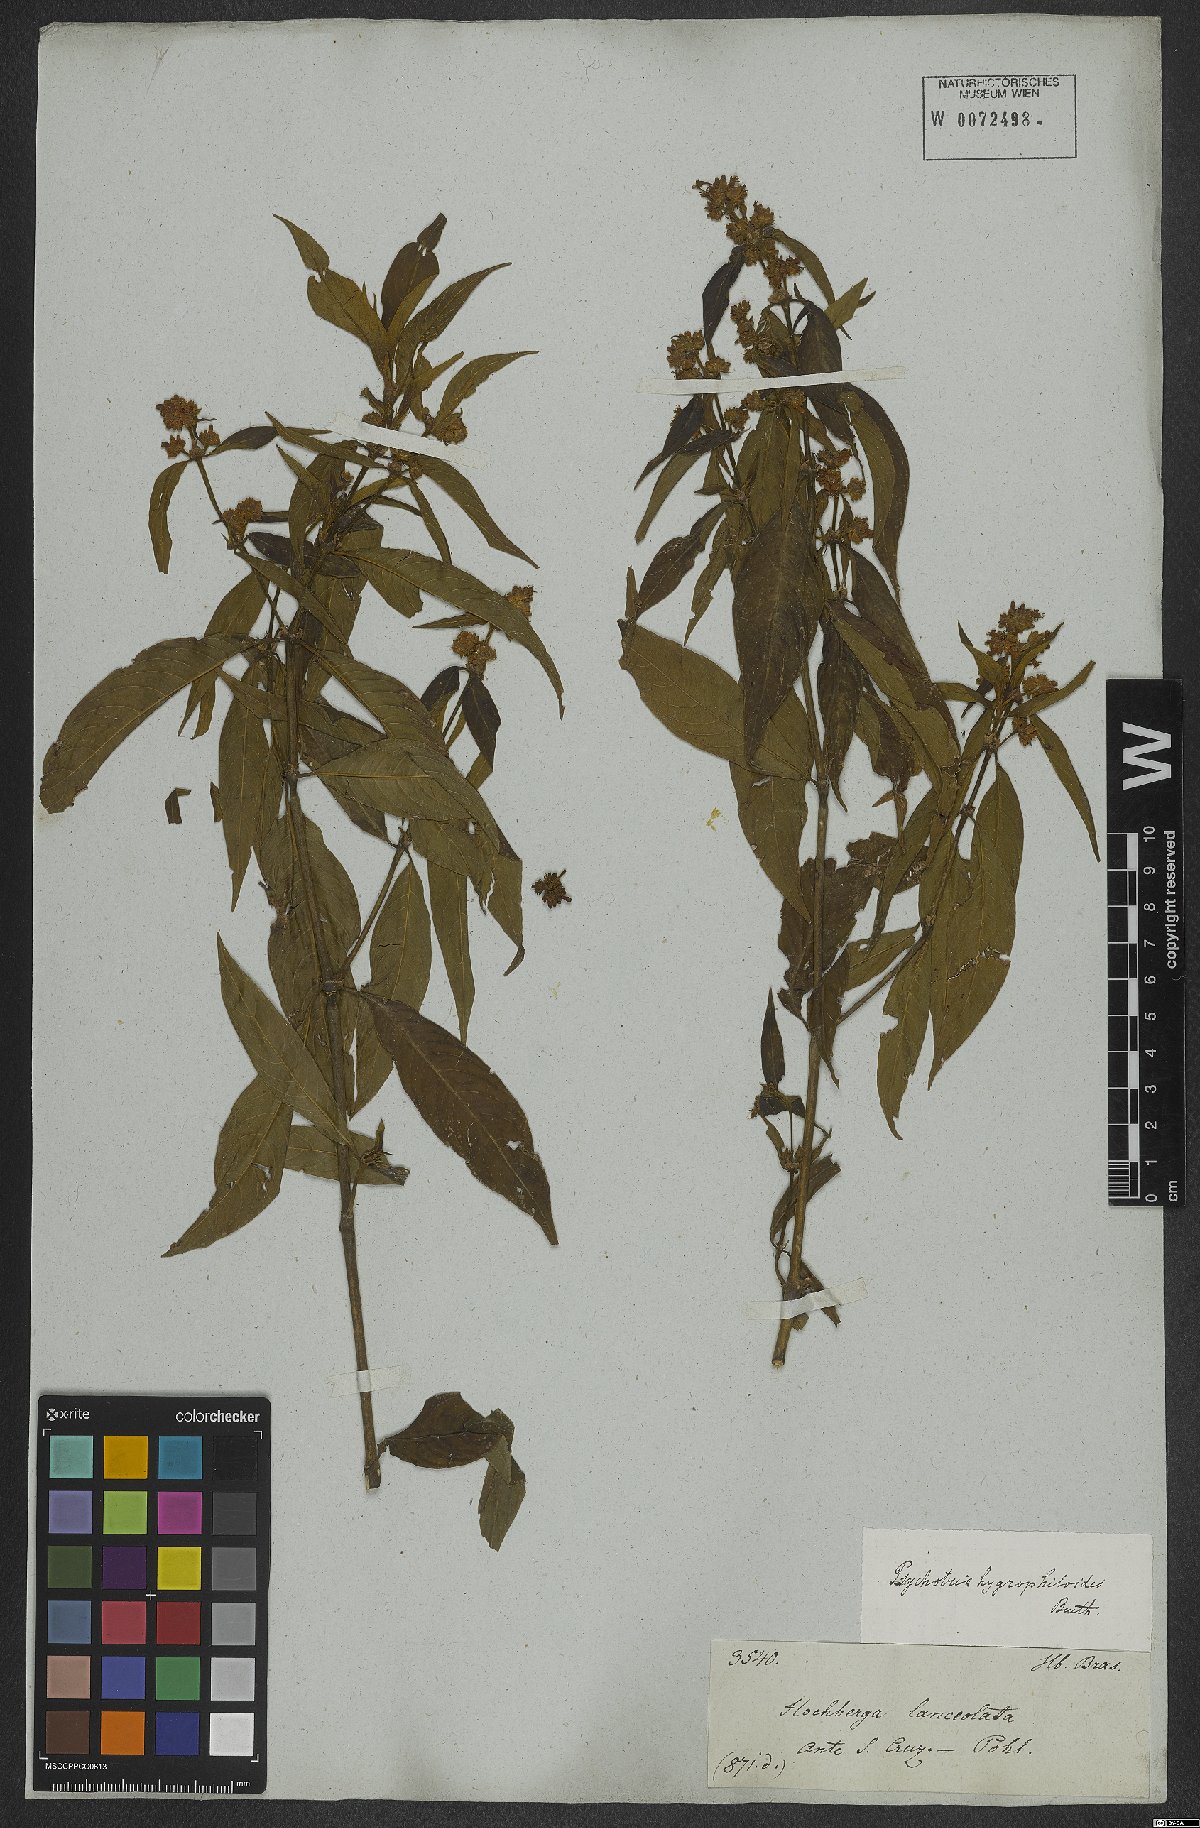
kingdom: Plantae
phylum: Tracheophyta
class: Magnoliopsida
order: Gentianales
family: Rubiaceae
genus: Psychotria
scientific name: Psychotria stachyoides
